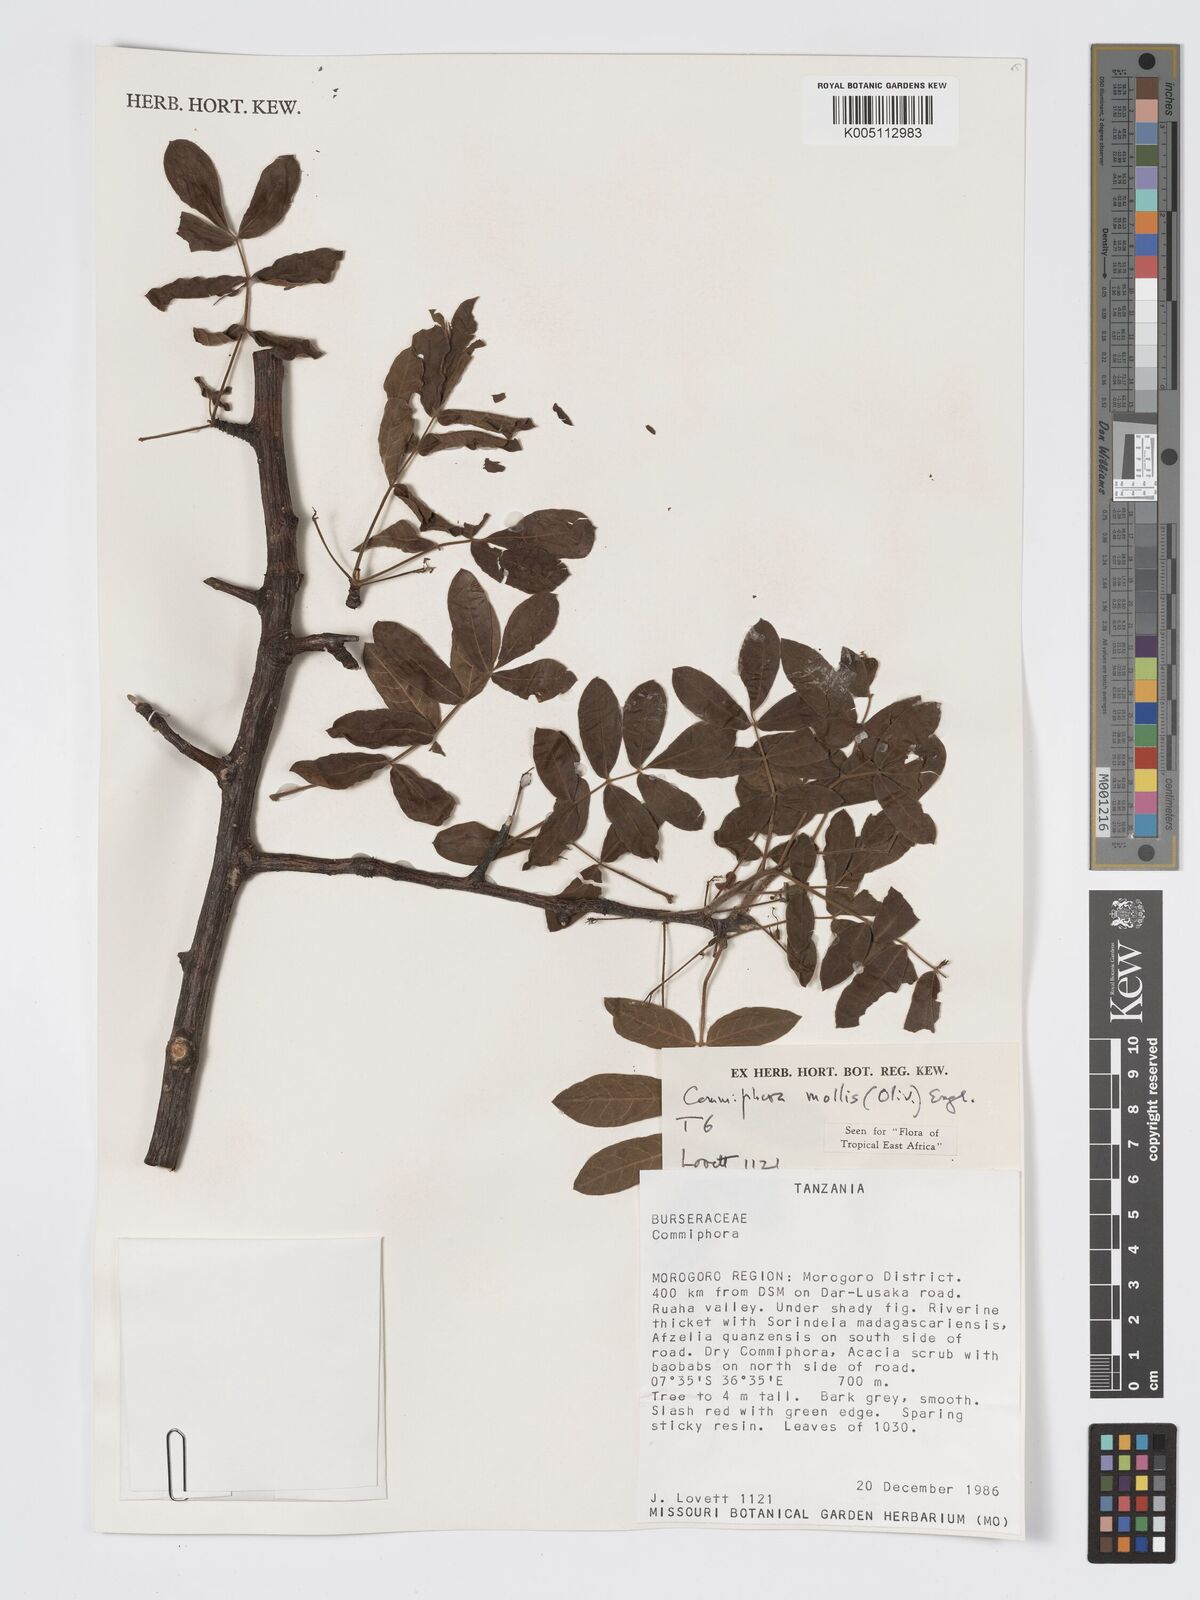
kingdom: Plantae
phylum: Tracheophyta
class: Magnoliopsida
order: Sapindales
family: Burseraceae
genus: Commiphora
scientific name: Commiphora
